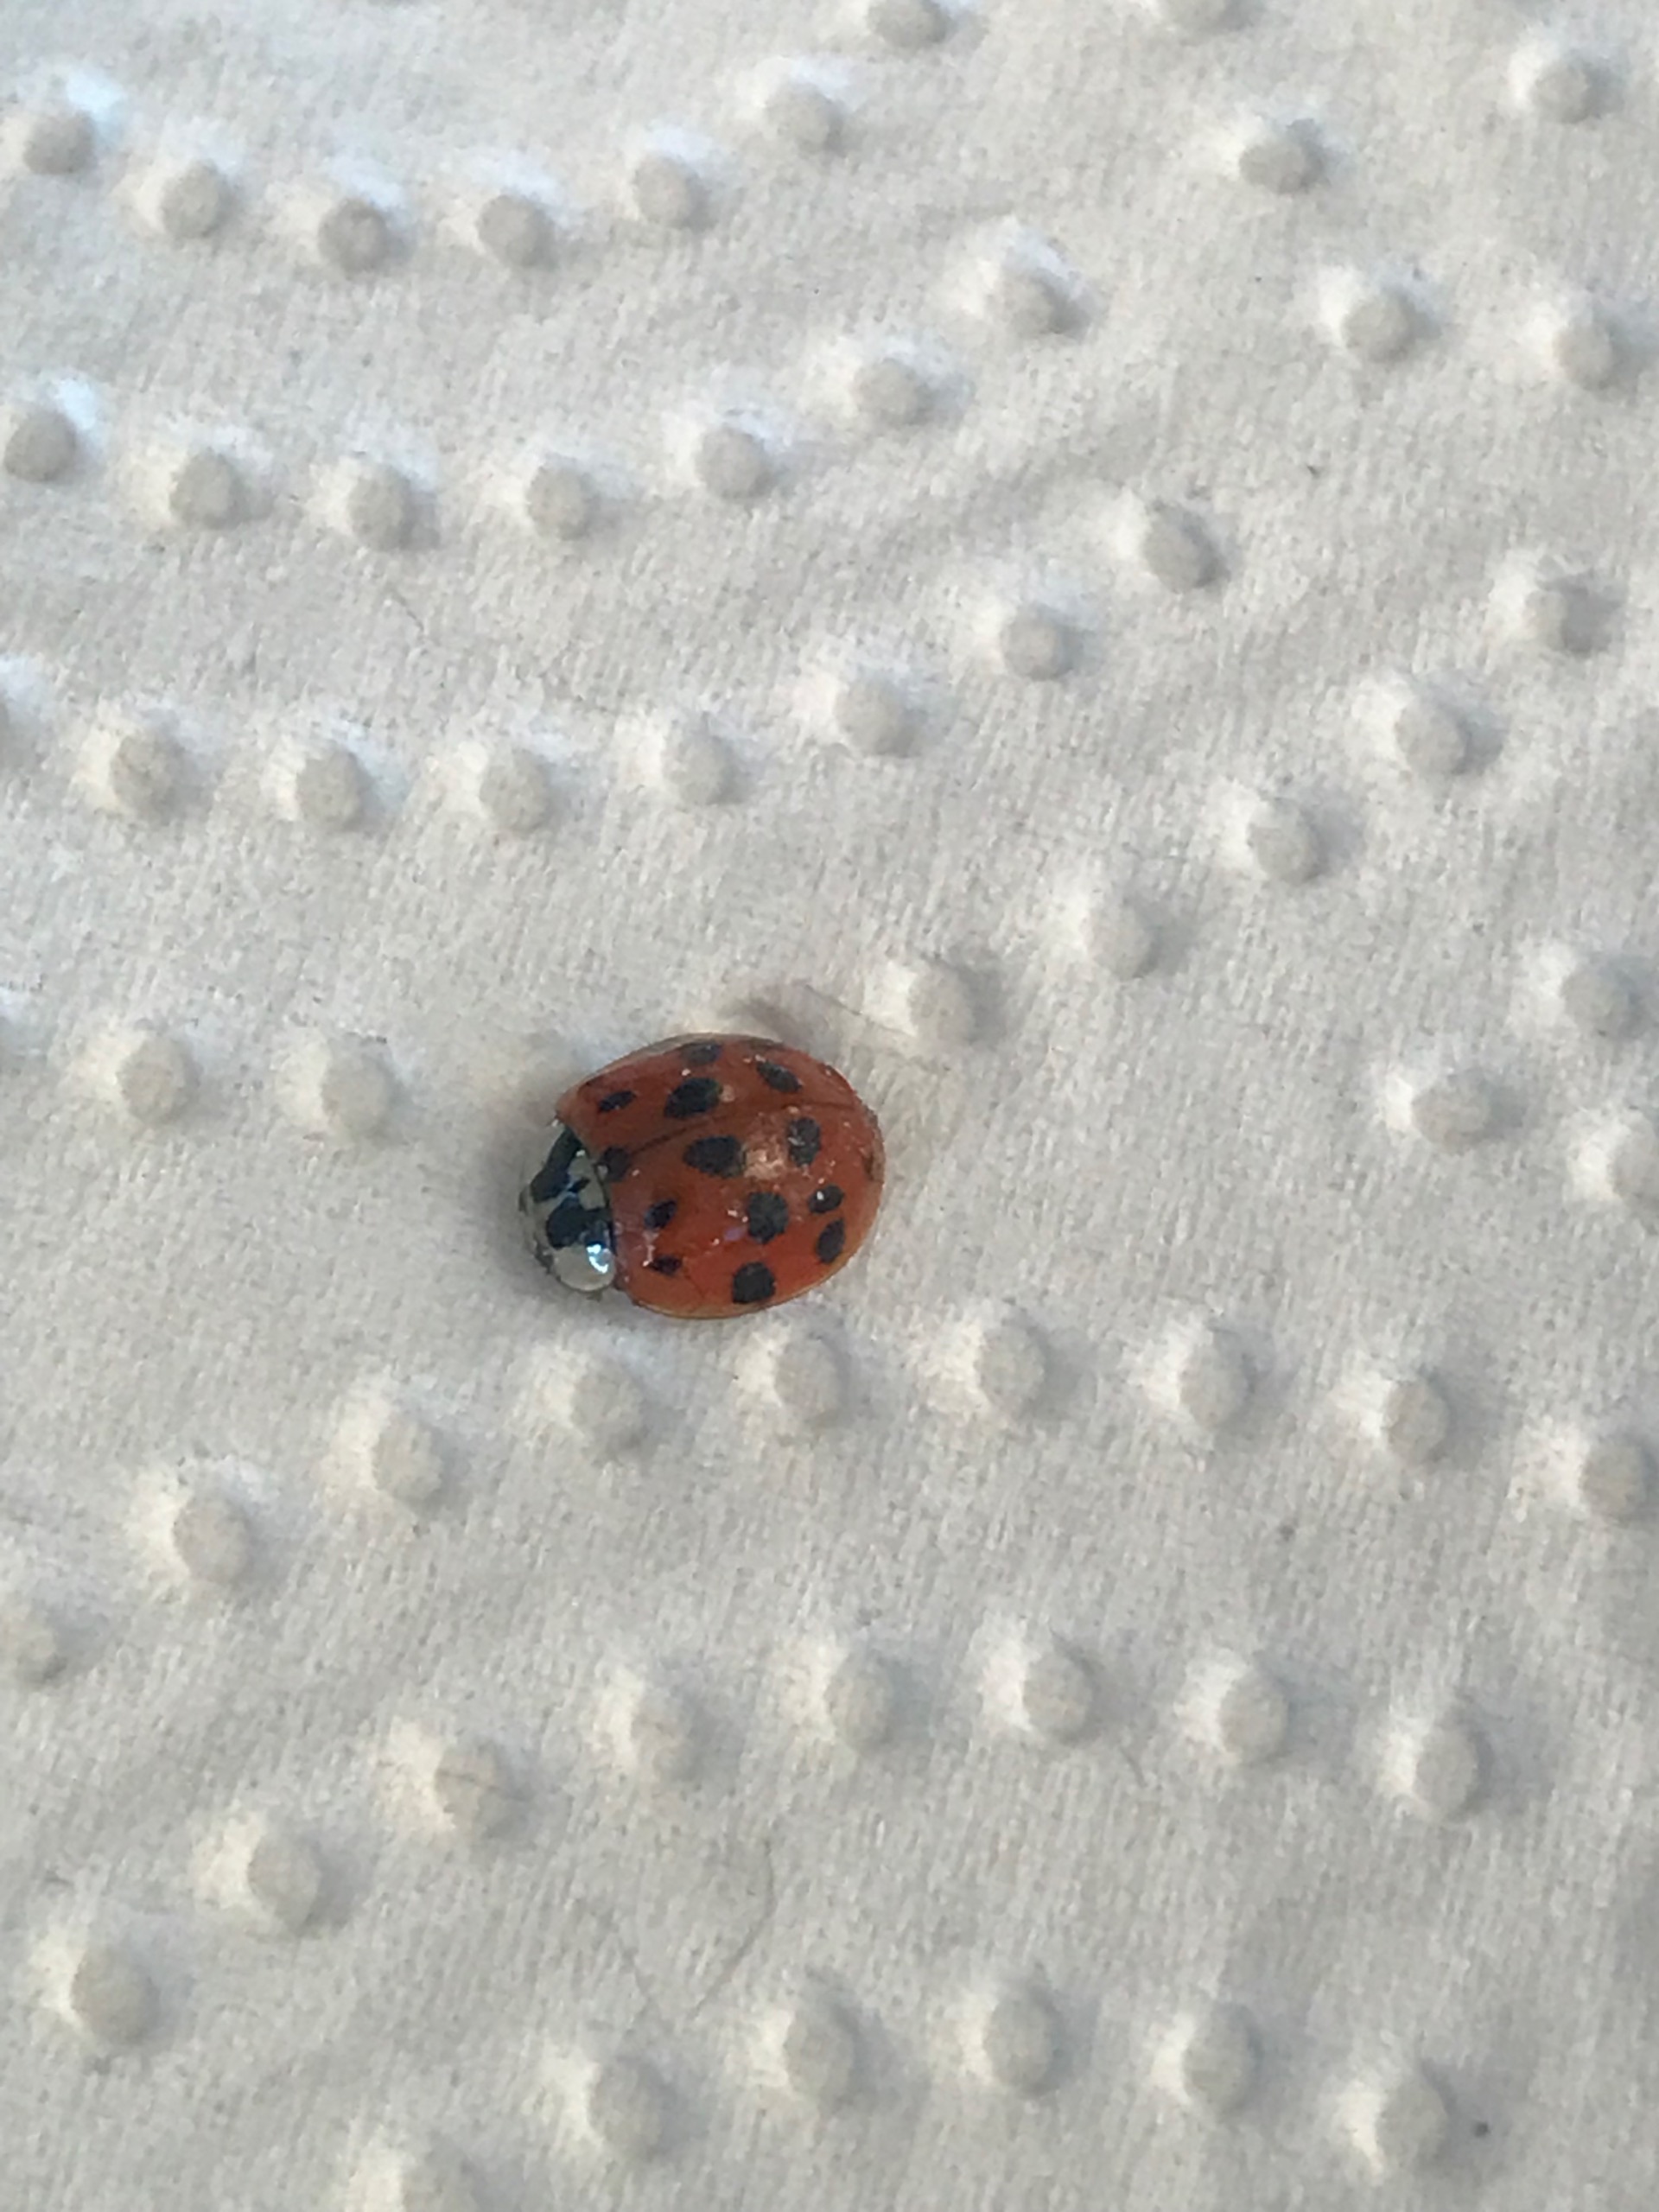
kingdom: Animalia
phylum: Arthropoda
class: Insecta
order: Coleoptera
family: Coccinellidae
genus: Harmonia
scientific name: Harmonia axyridis
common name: Harlekinmariehøne
